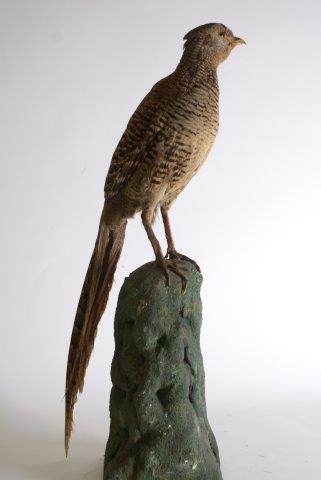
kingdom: Animalia
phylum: Chordata
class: Aves
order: Galliformes
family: Phasianidae
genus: Phasianus
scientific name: Phasianus colchicus
